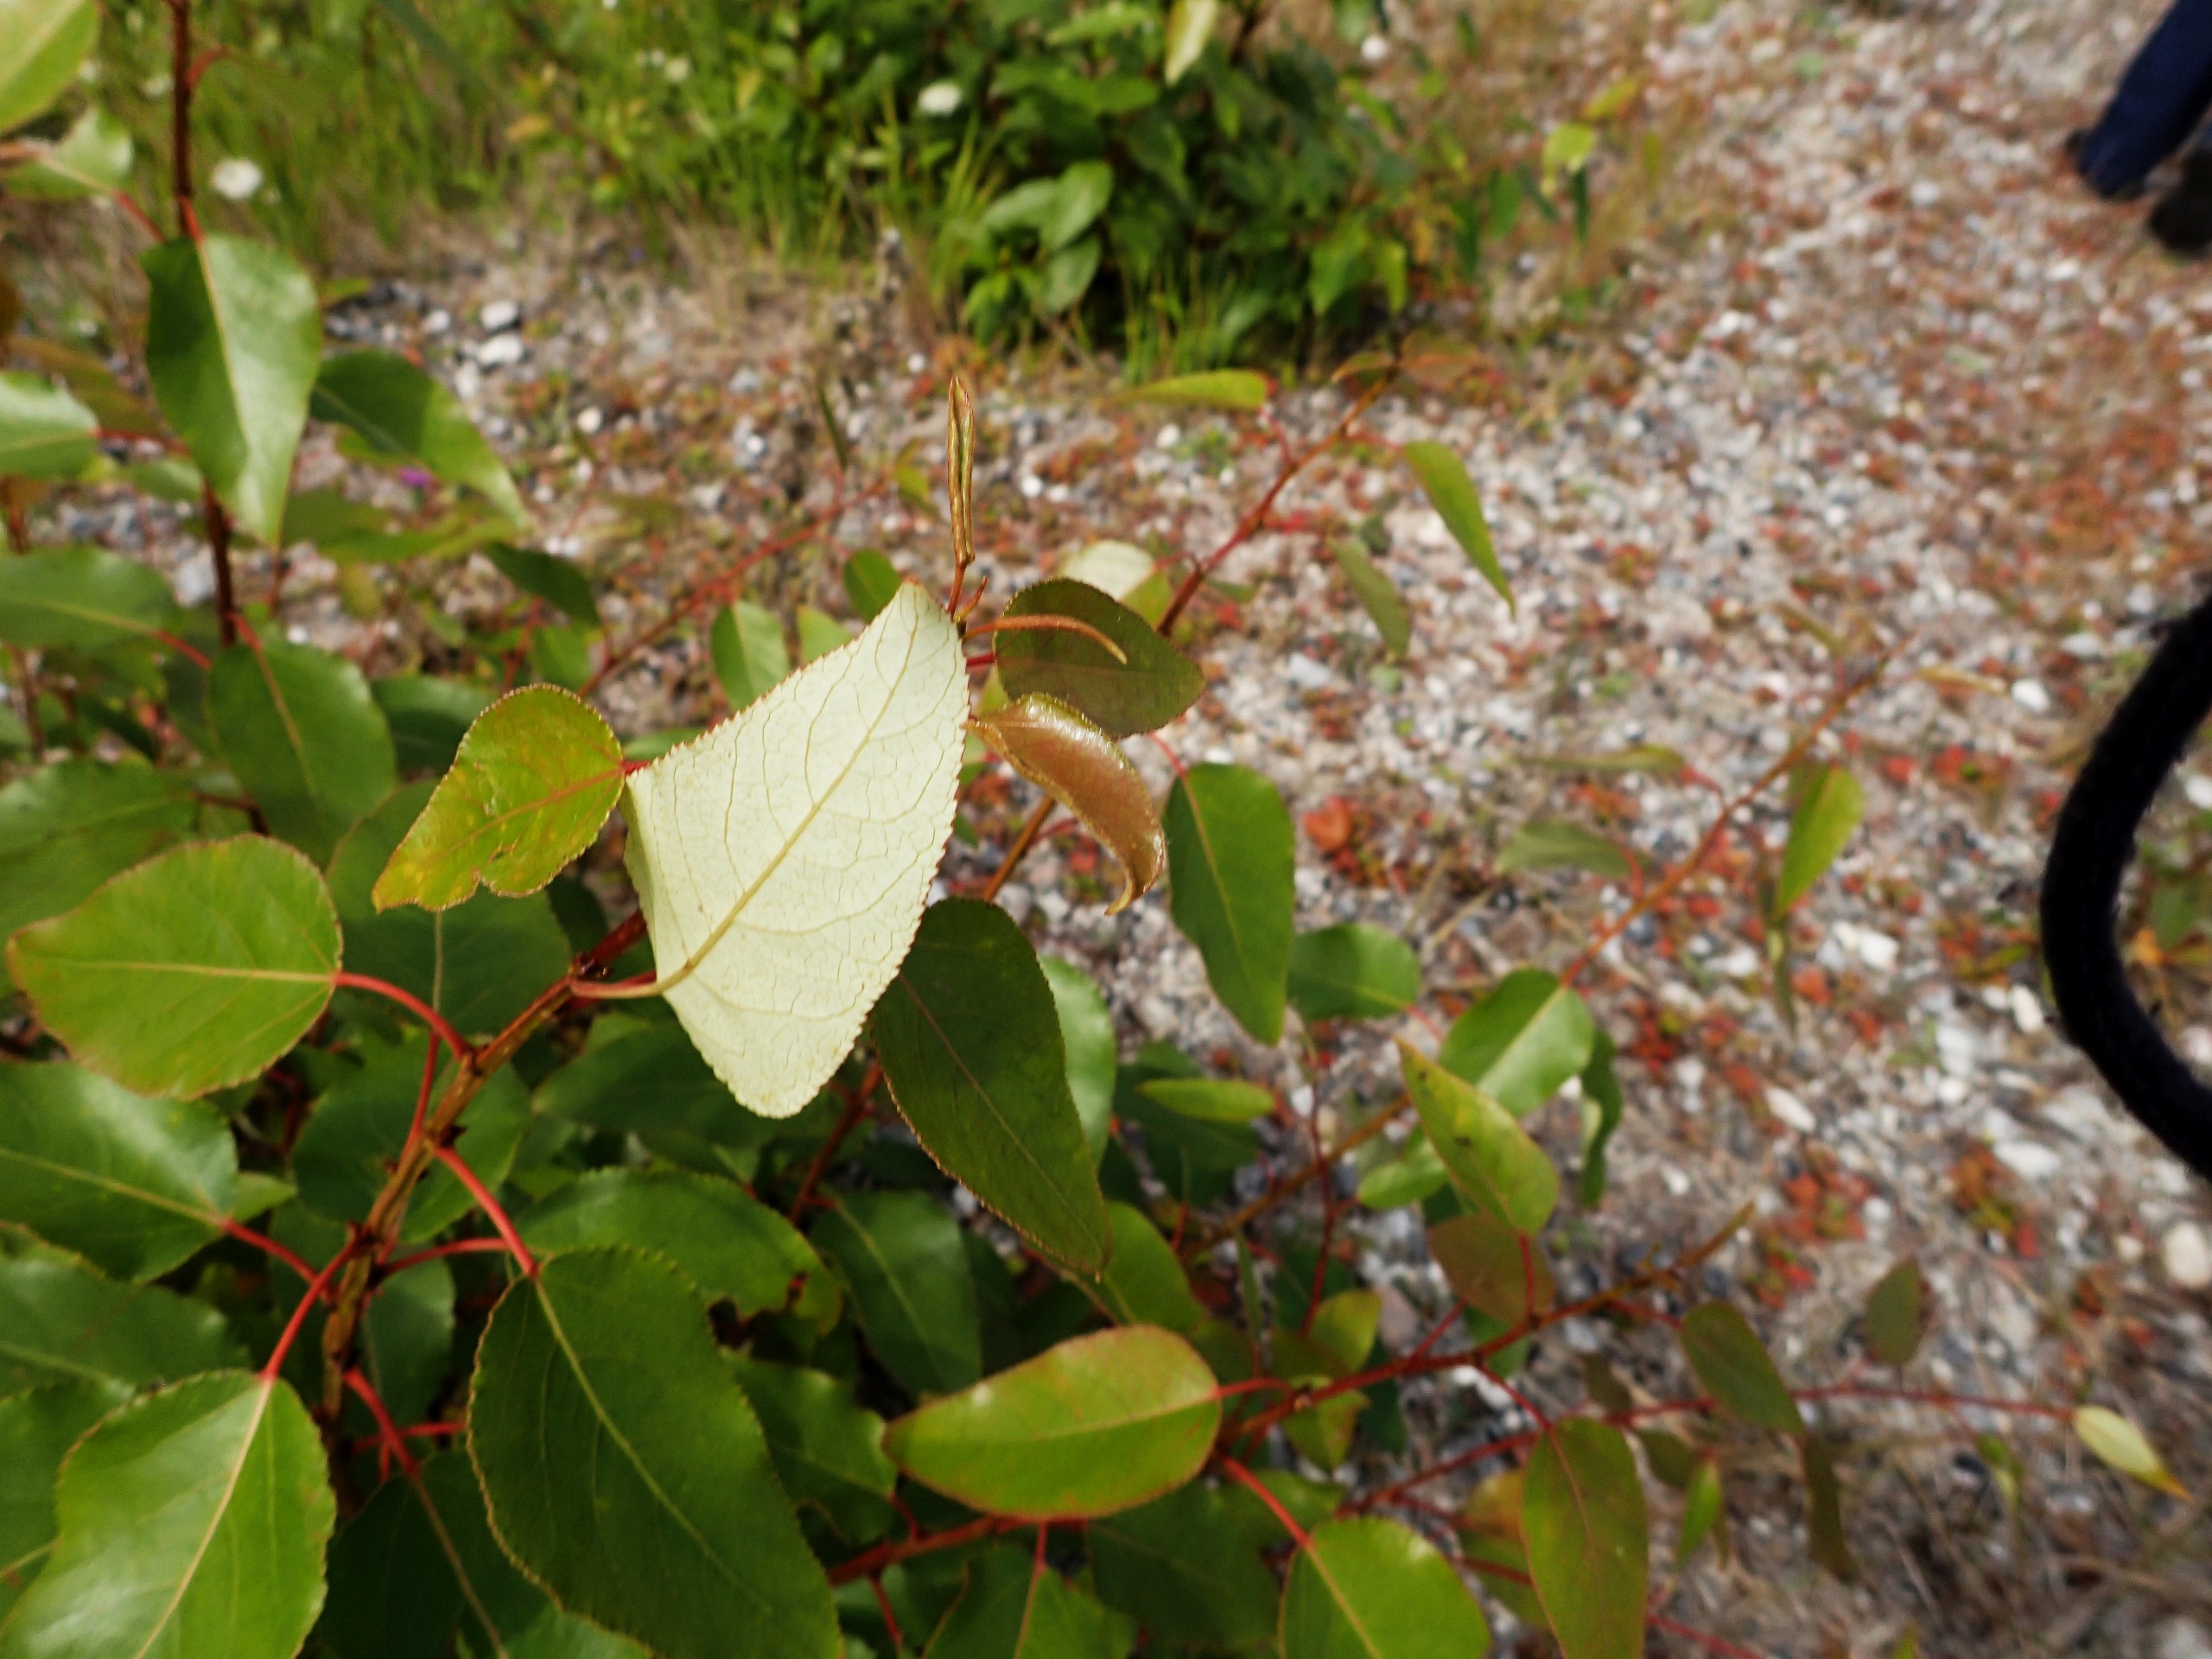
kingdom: Plantae
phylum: Tracheophyta
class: Magnoliopsida
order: Malpighiales
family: Salicaceae
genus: Populus
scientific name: Populus balsamifera
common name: Balsam-poppel
